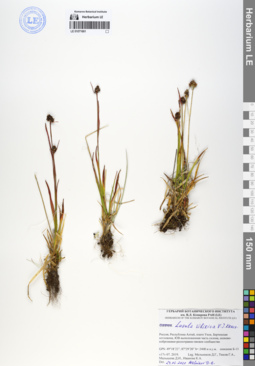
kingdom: Plantae
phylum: Tracheophyta
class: Liliopsida
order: Poales
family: Juncaceae
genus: Luzula
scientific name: Luzula multiflora
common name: Heath wood-rush
